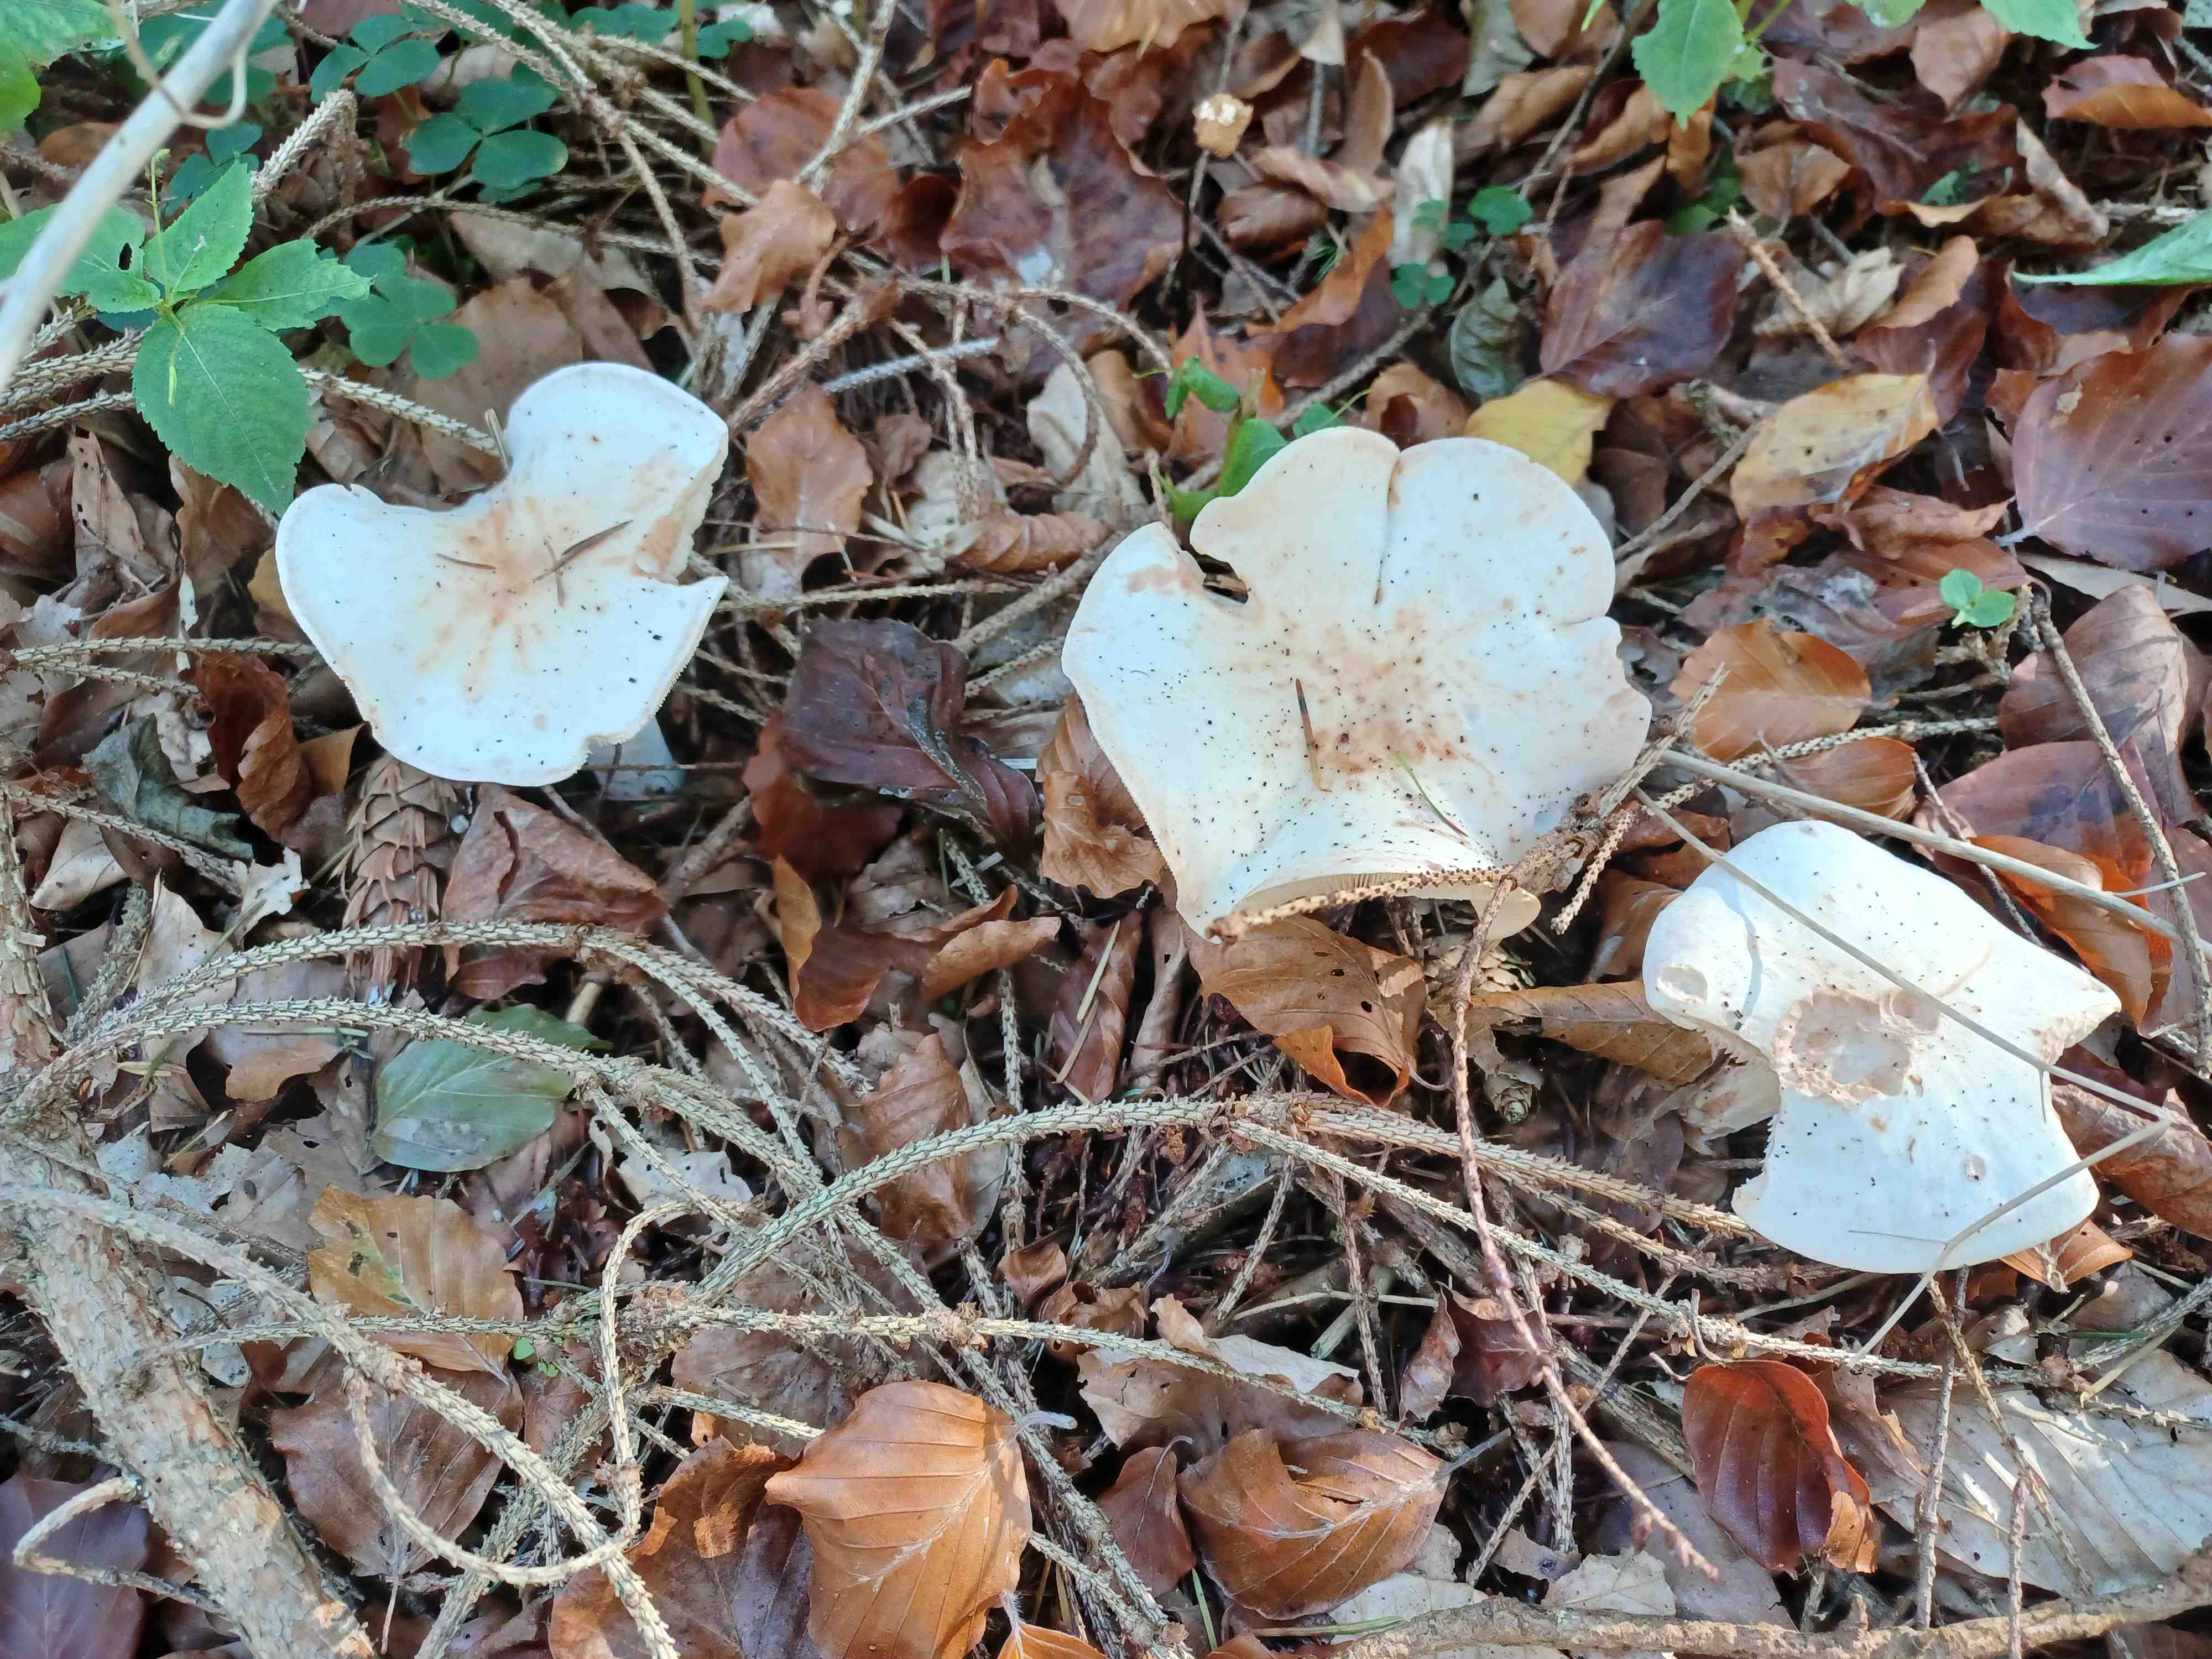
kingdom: Fungi
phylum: Basidiomycota
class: Agaricomycetes
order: Agaricales
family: Omphalotaceae
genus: Rhodocollybia
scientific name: Rhodocollybia maculata
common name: plettet fladhat
